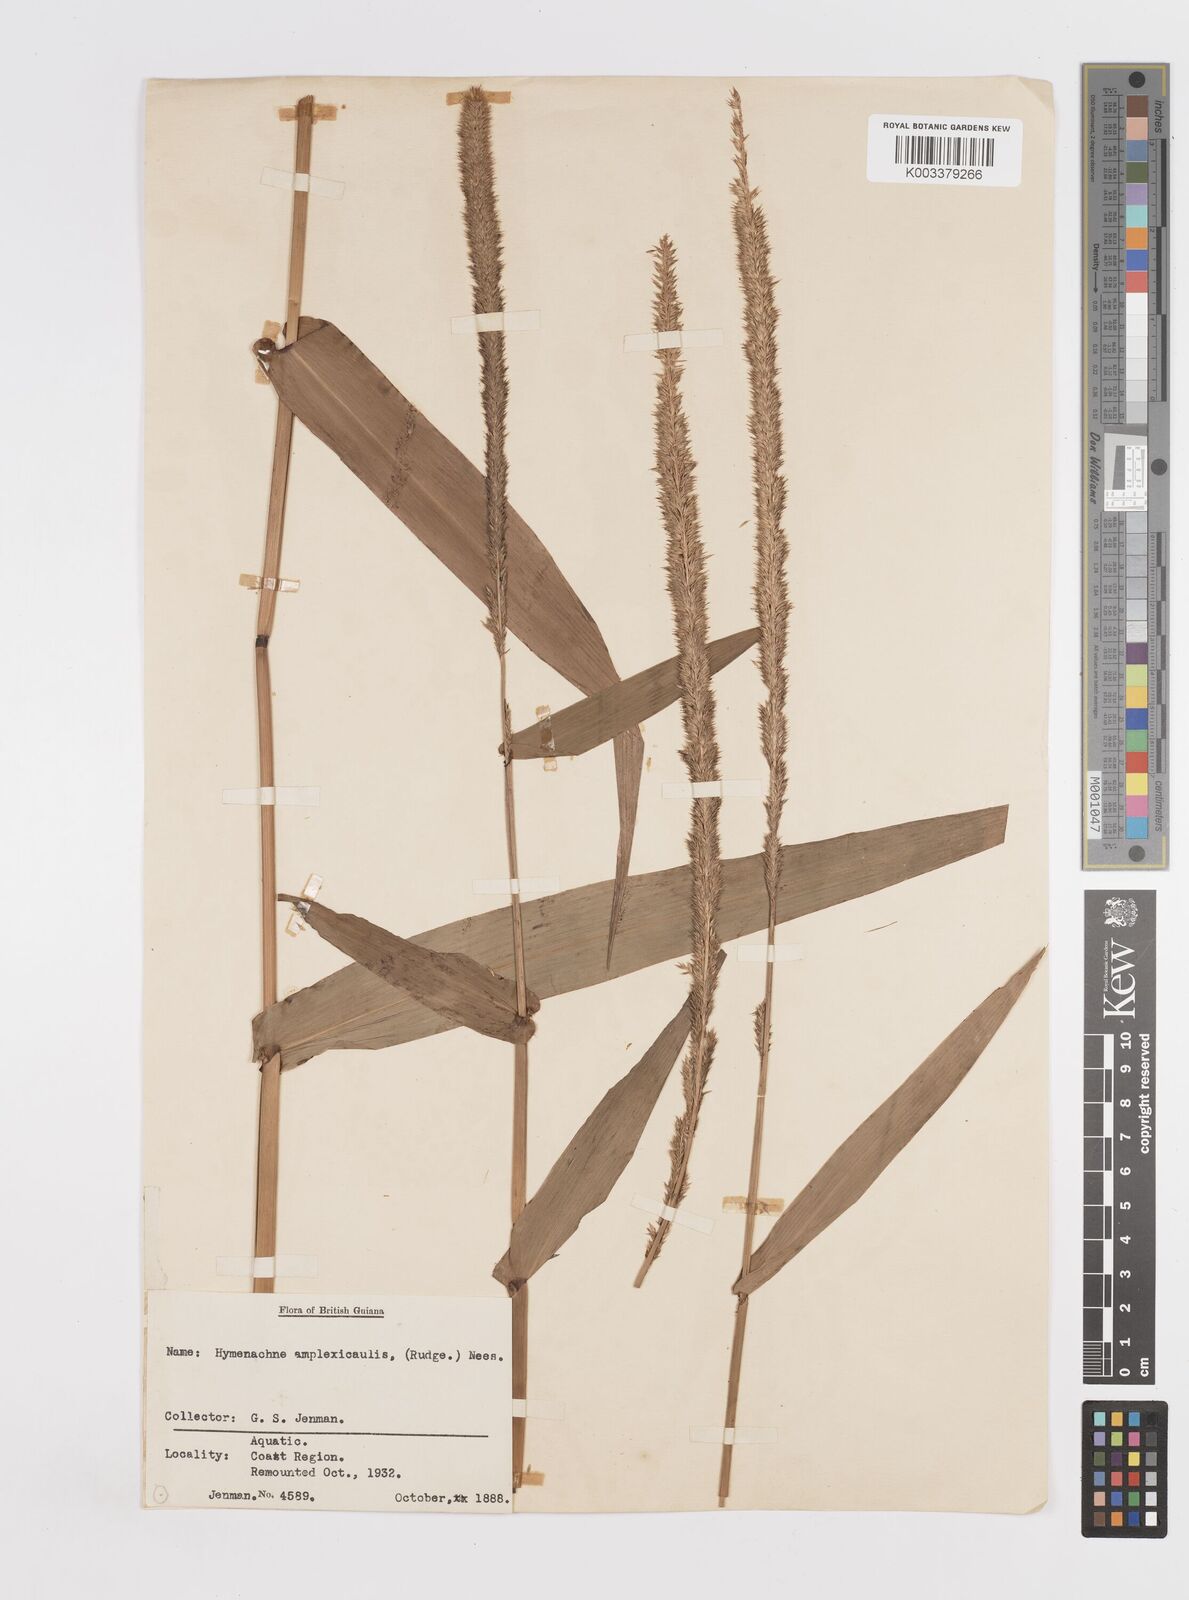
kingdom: Plantae
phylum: Tracheophyta
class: Liliopsida
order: Poales
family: Poaceae
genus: Hymenachne
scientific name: Hymenachne amplexicaulis
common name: Olive hymenachne
